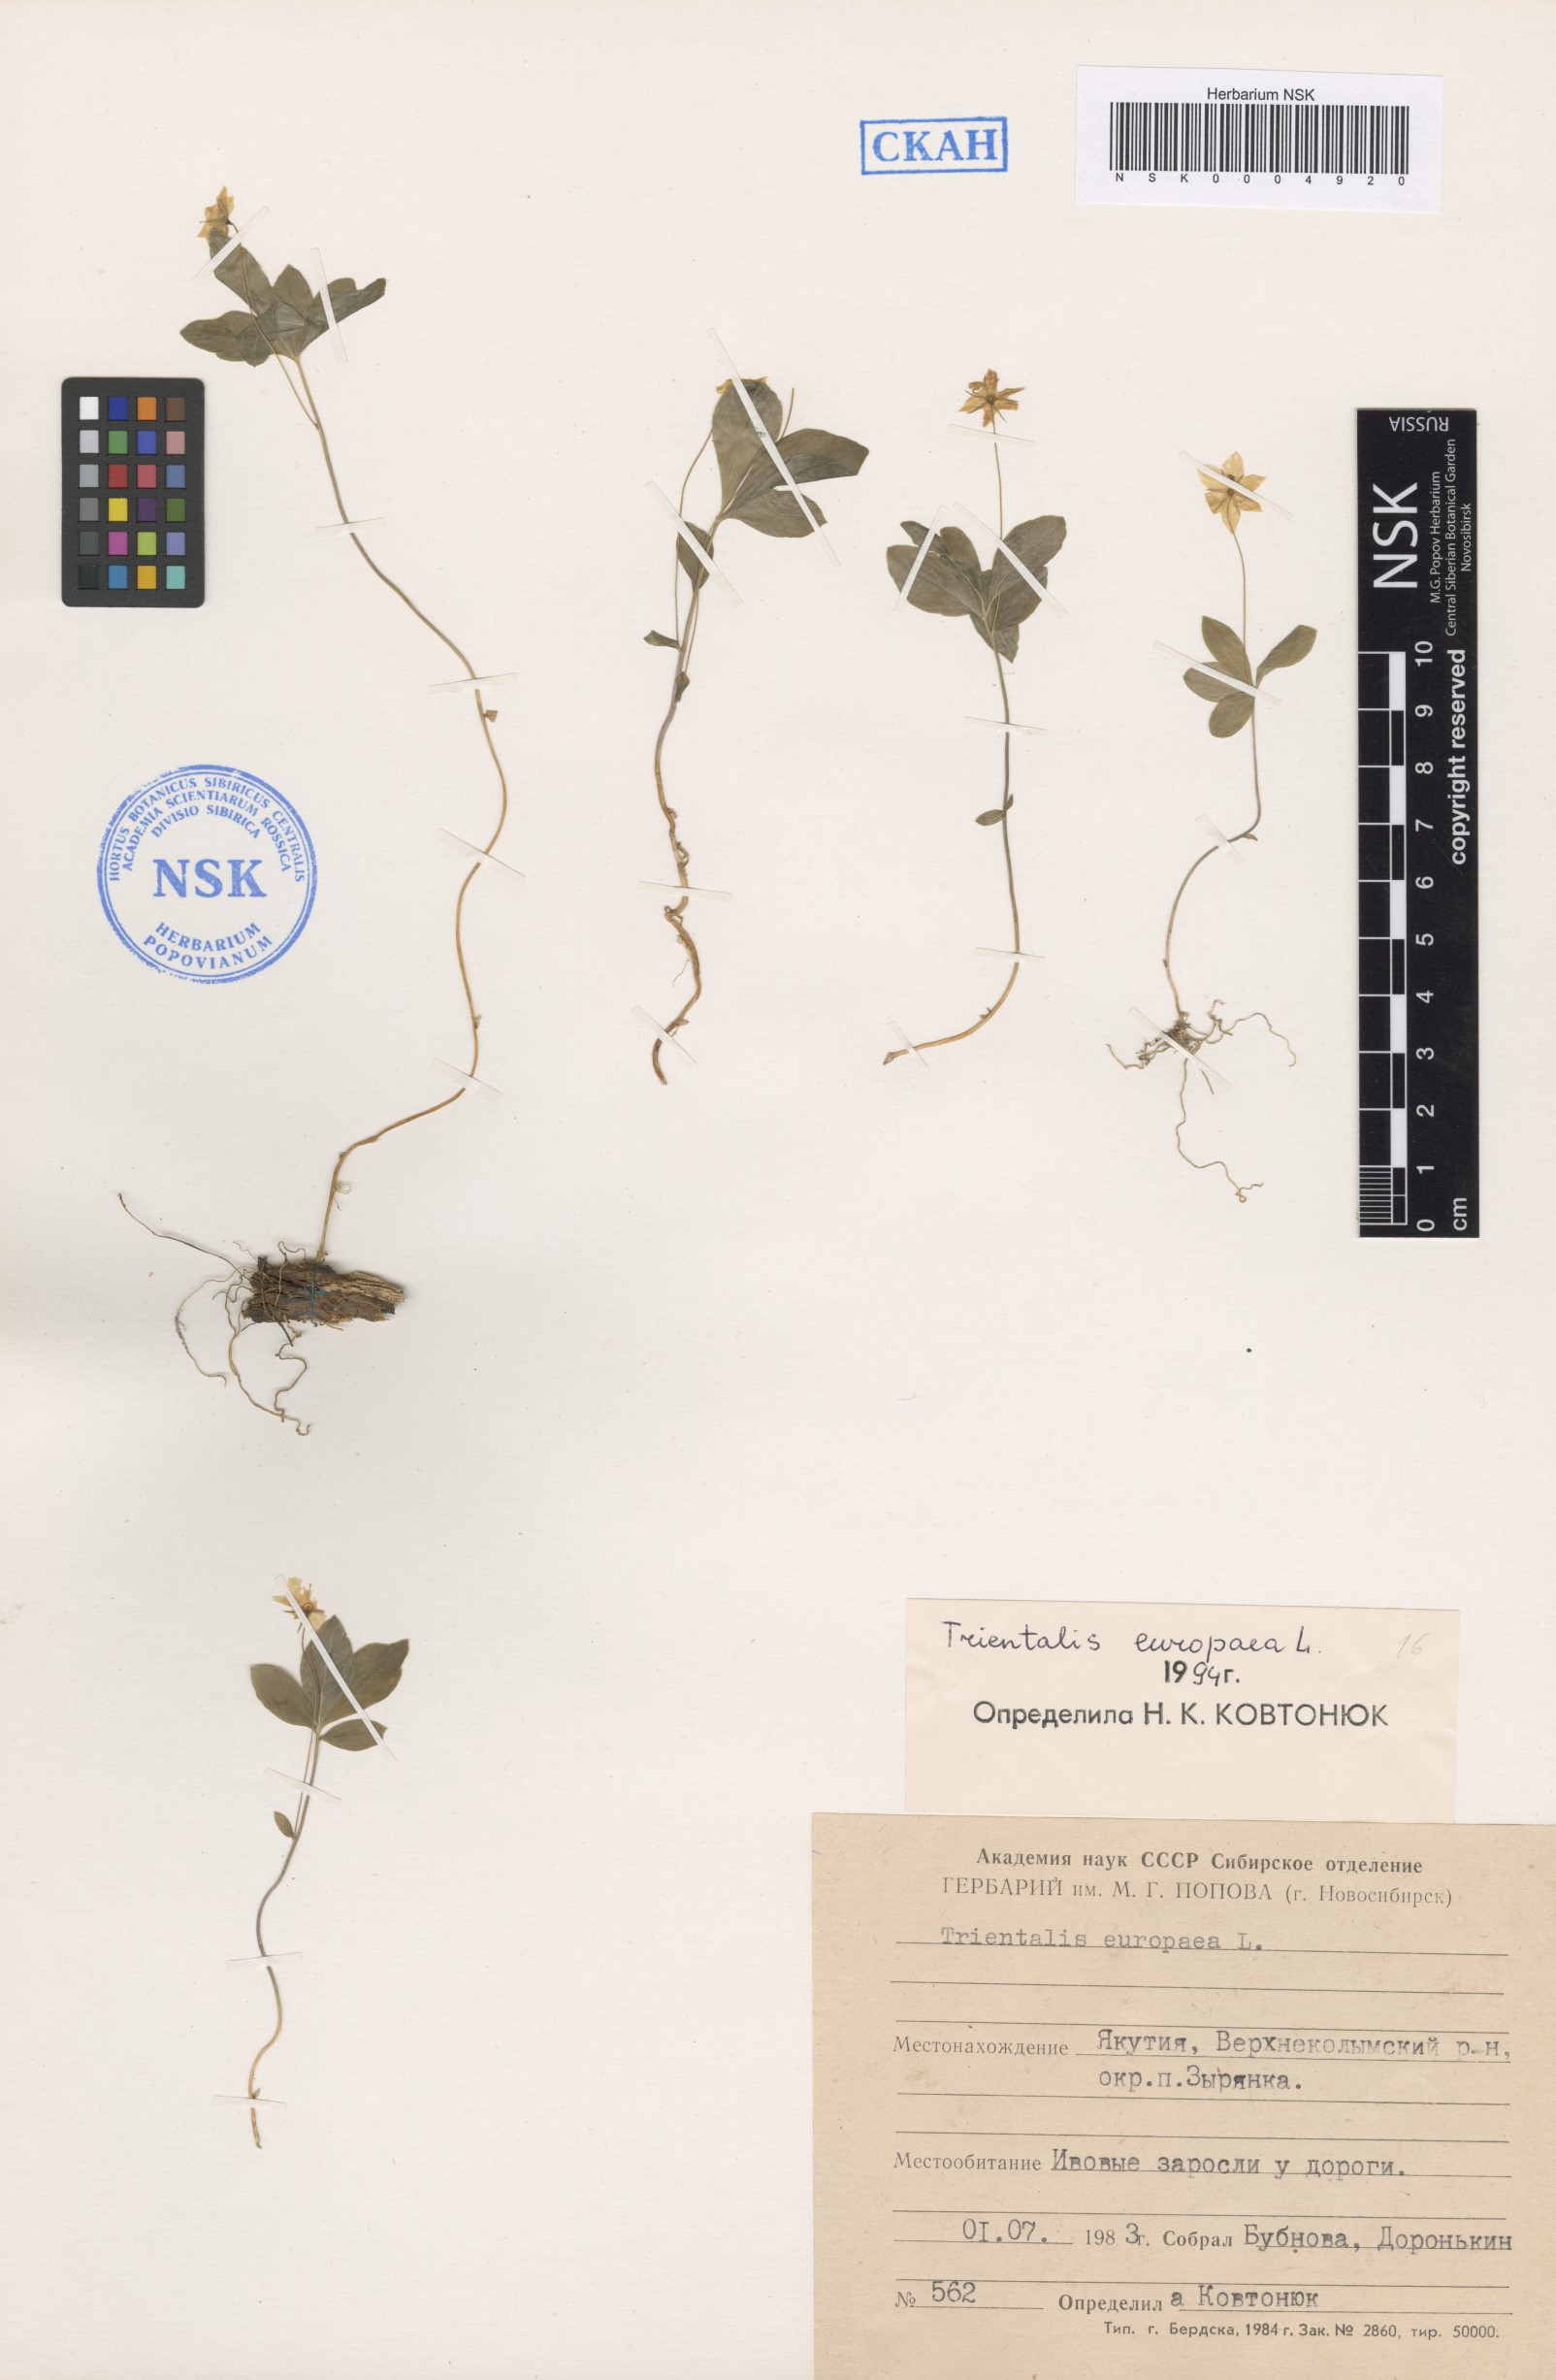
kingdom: Plantae
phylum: Tracheophyta
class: Magnoliopsida
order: Ericales
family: Primulaceae
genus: Lysimachia
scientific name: Lysimachia europaea
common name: Arctic starflower
